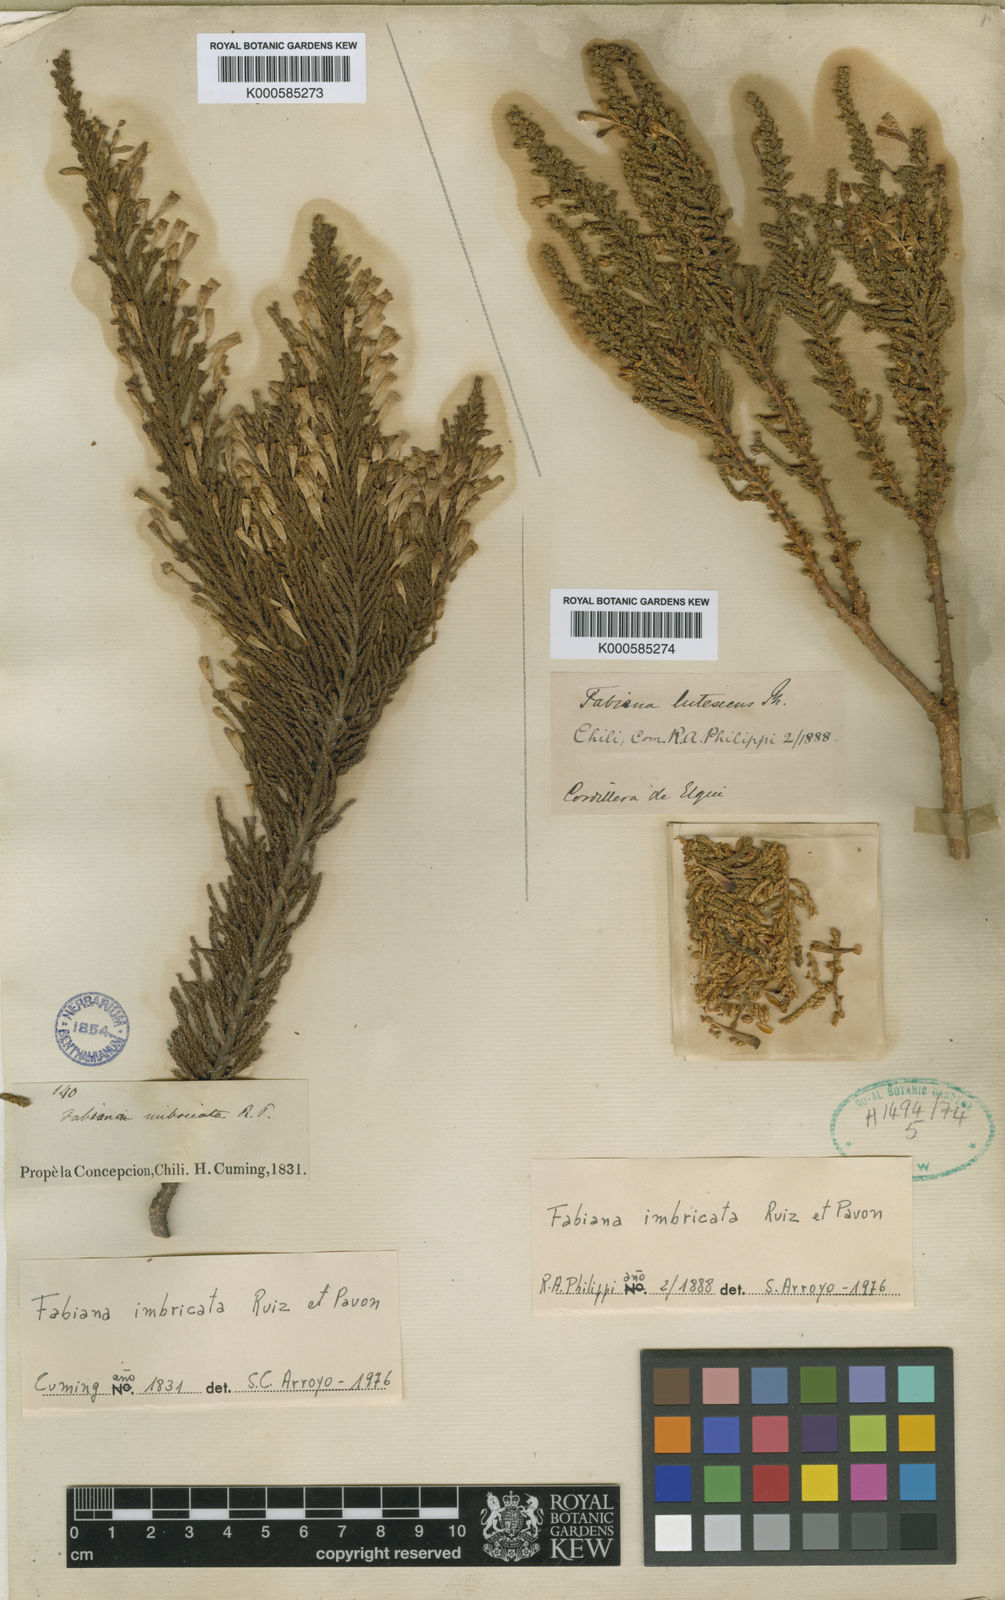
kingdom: Plantae
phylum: Tracheophyta
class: Magnoliopsida
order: Solanales
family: Solanaceae
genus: Fabiana
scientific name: Fabiana imbricata
